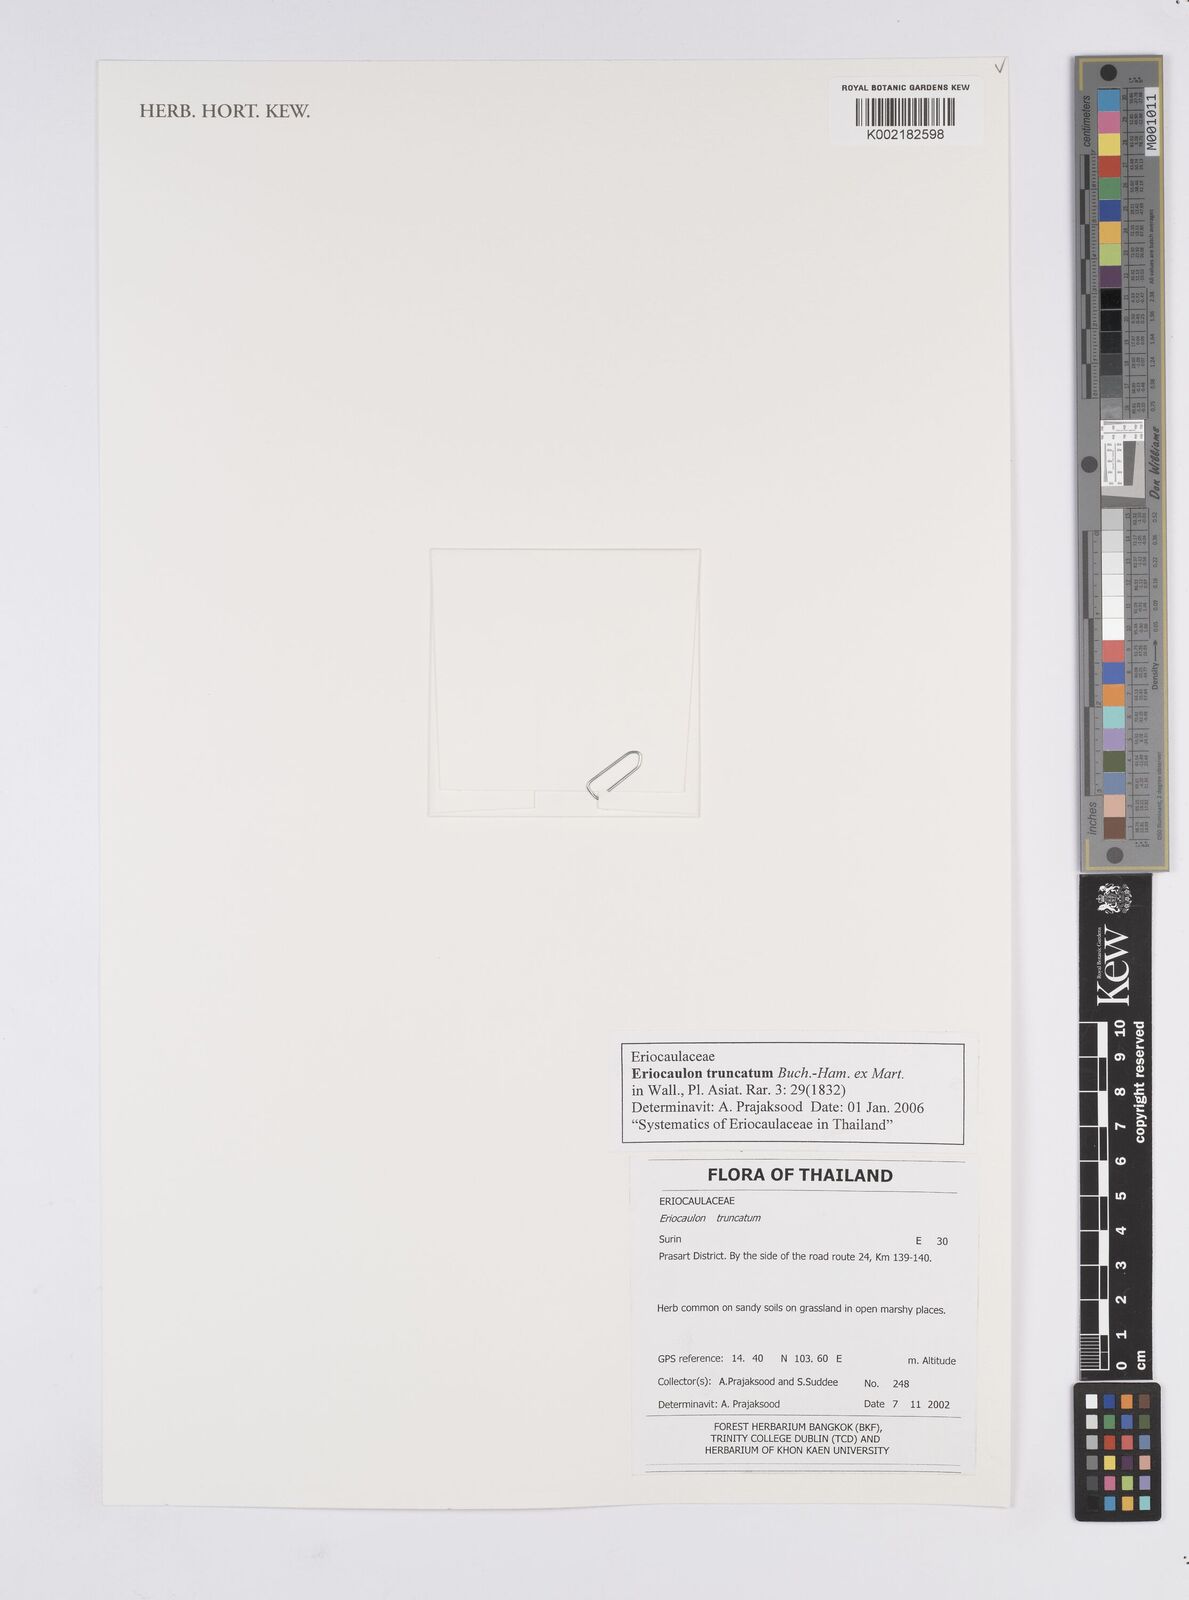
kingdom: Plantae
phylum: Tracheophyta
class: Liliopsida
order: Poales
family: Eriocaulaceae
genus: Eriocaulon
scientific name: Eriocaulon truncatum
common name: Short pipe-wort
